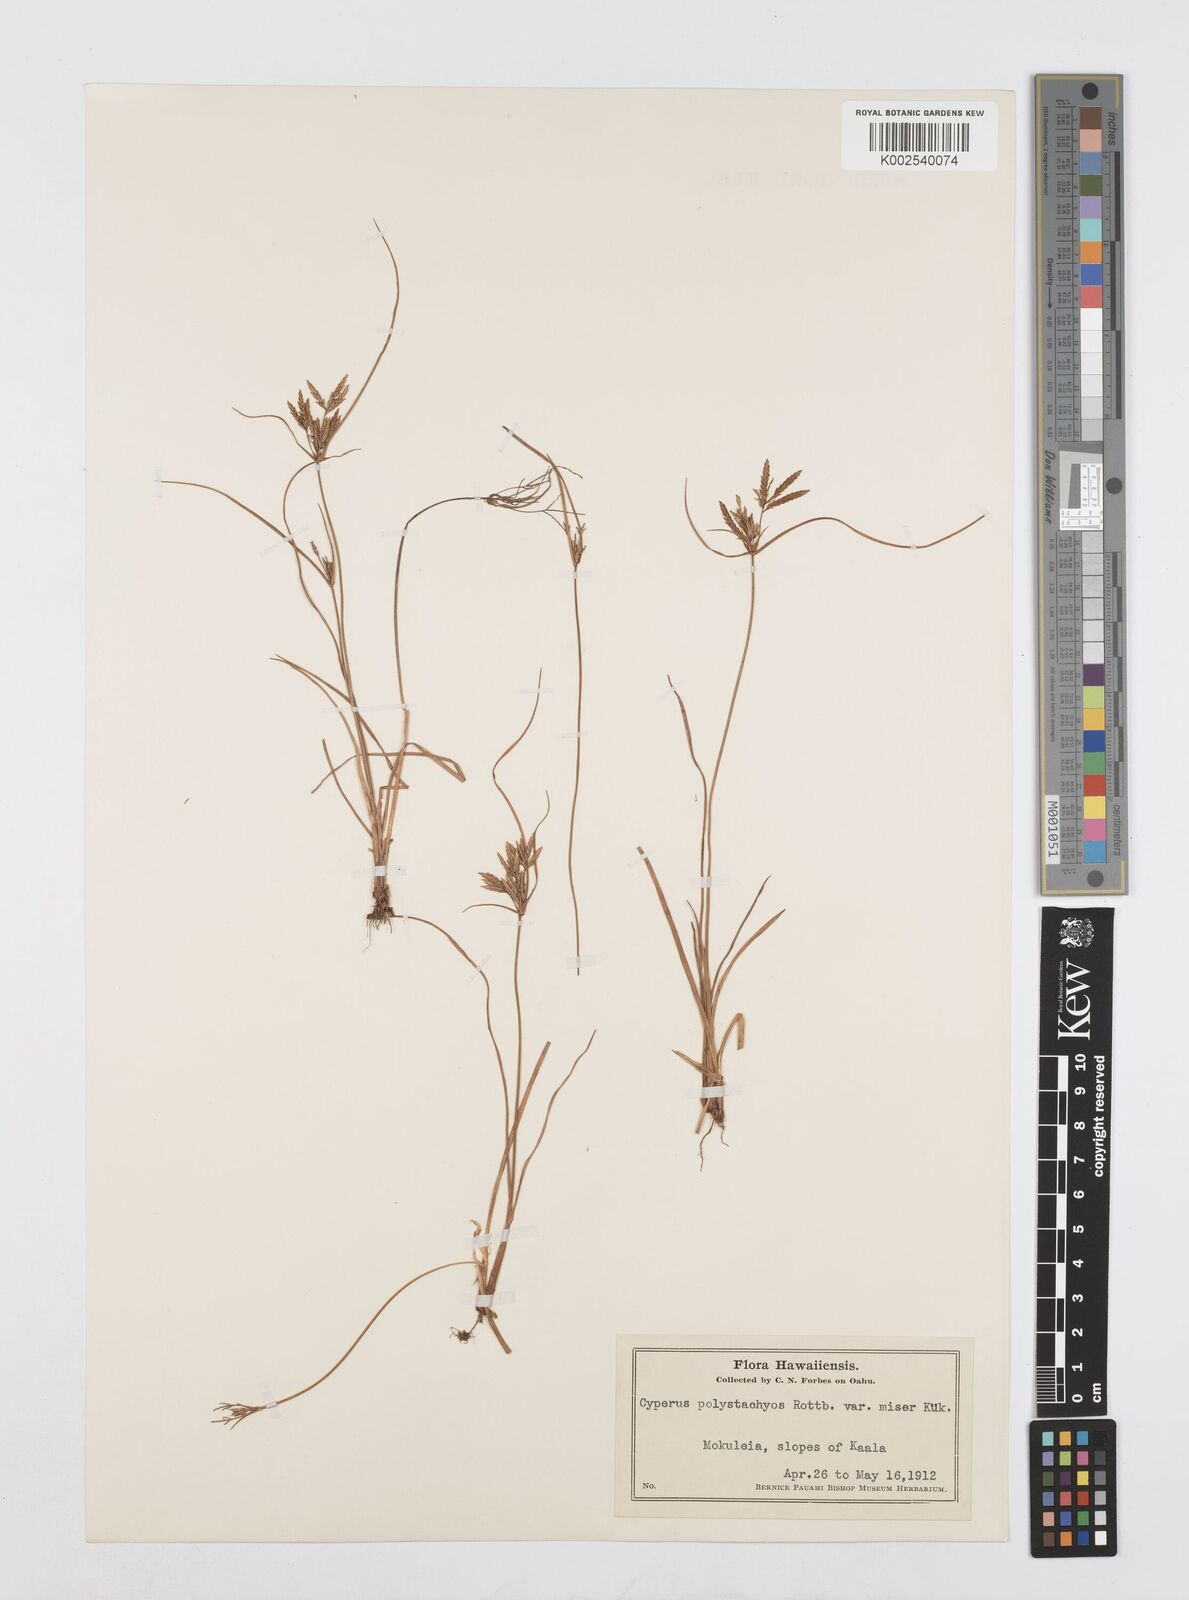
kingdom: Plantae
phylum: Tracheophyta
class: Liliopsida
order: Poales
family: Cyperaceae
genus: Cyperus
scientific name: Cyperus polystachyos
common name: Bunchy flat sedge
